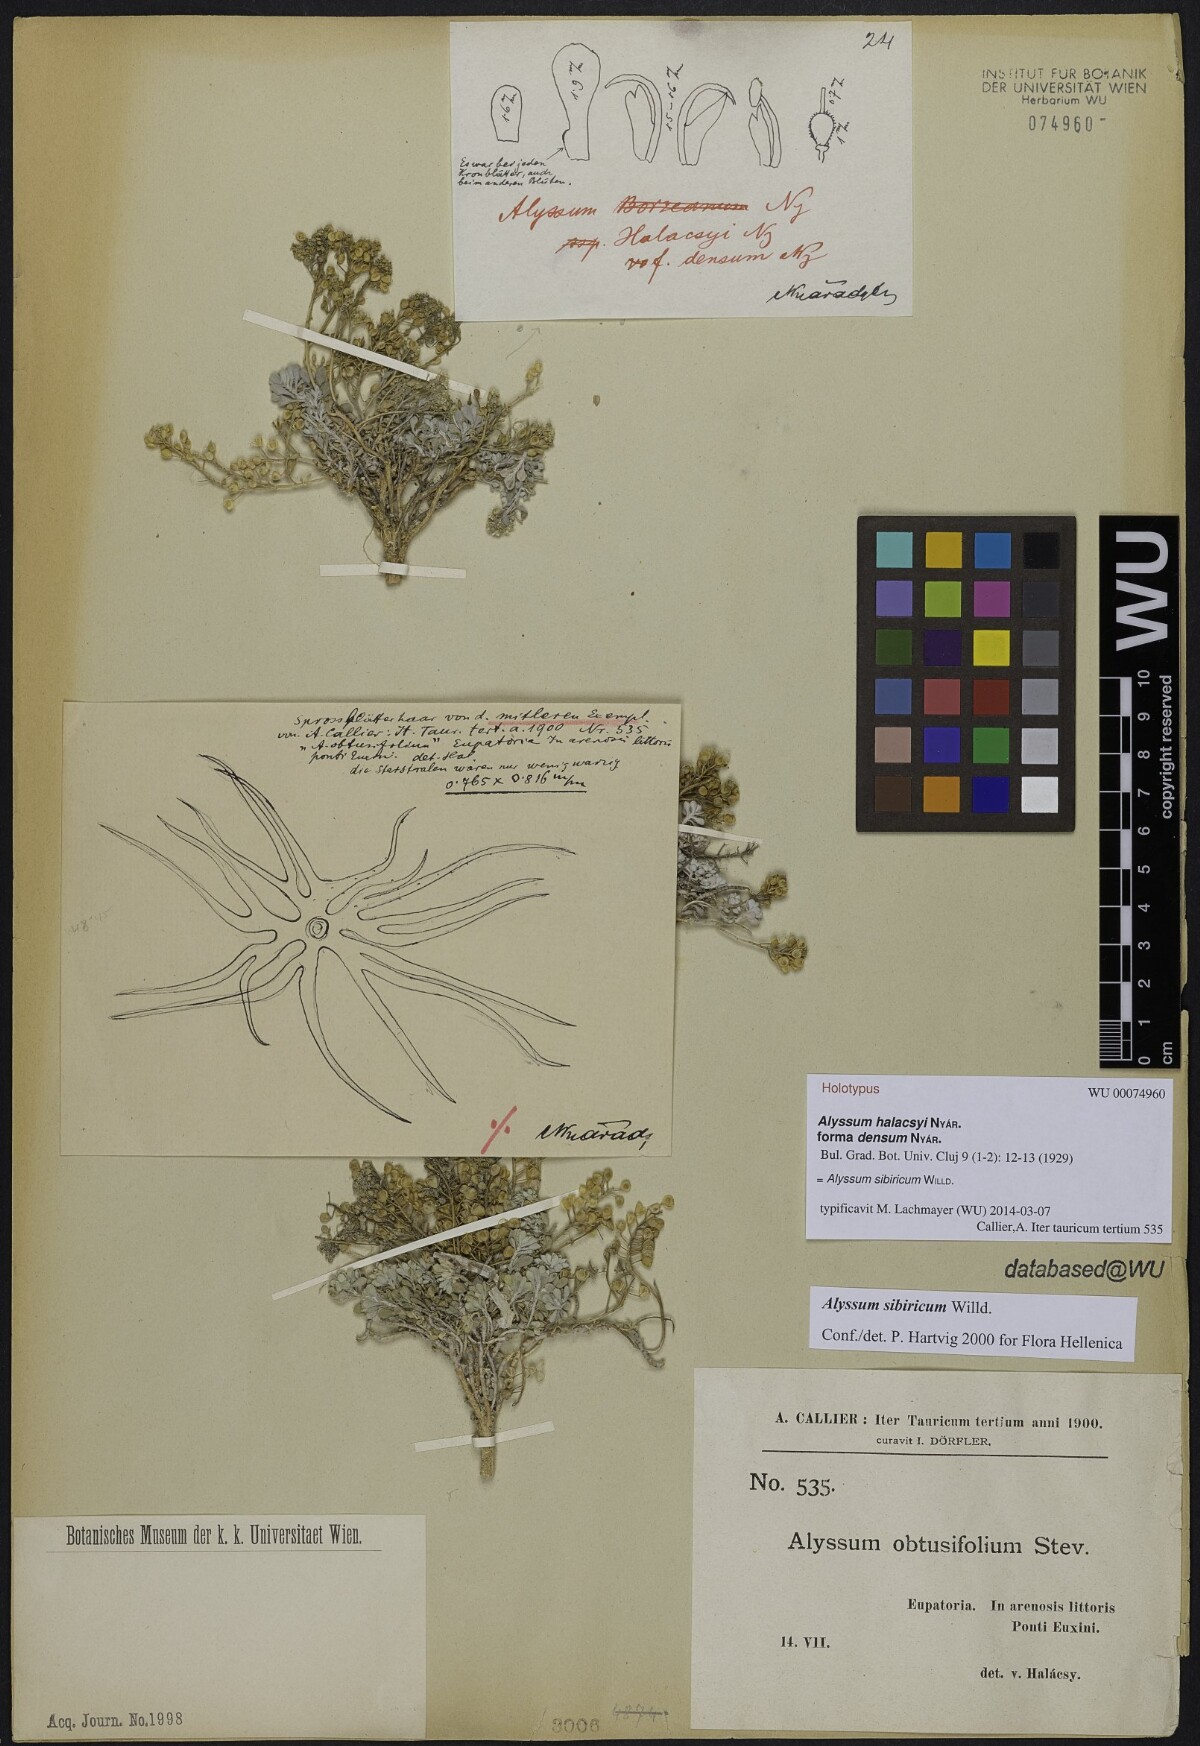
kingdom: Plantae
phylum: Tracheophyta
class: Magnoliopsida
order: Brassicales
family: Brassicaceae
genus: Odontarrhena
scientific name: Odontarrhena sibirica
